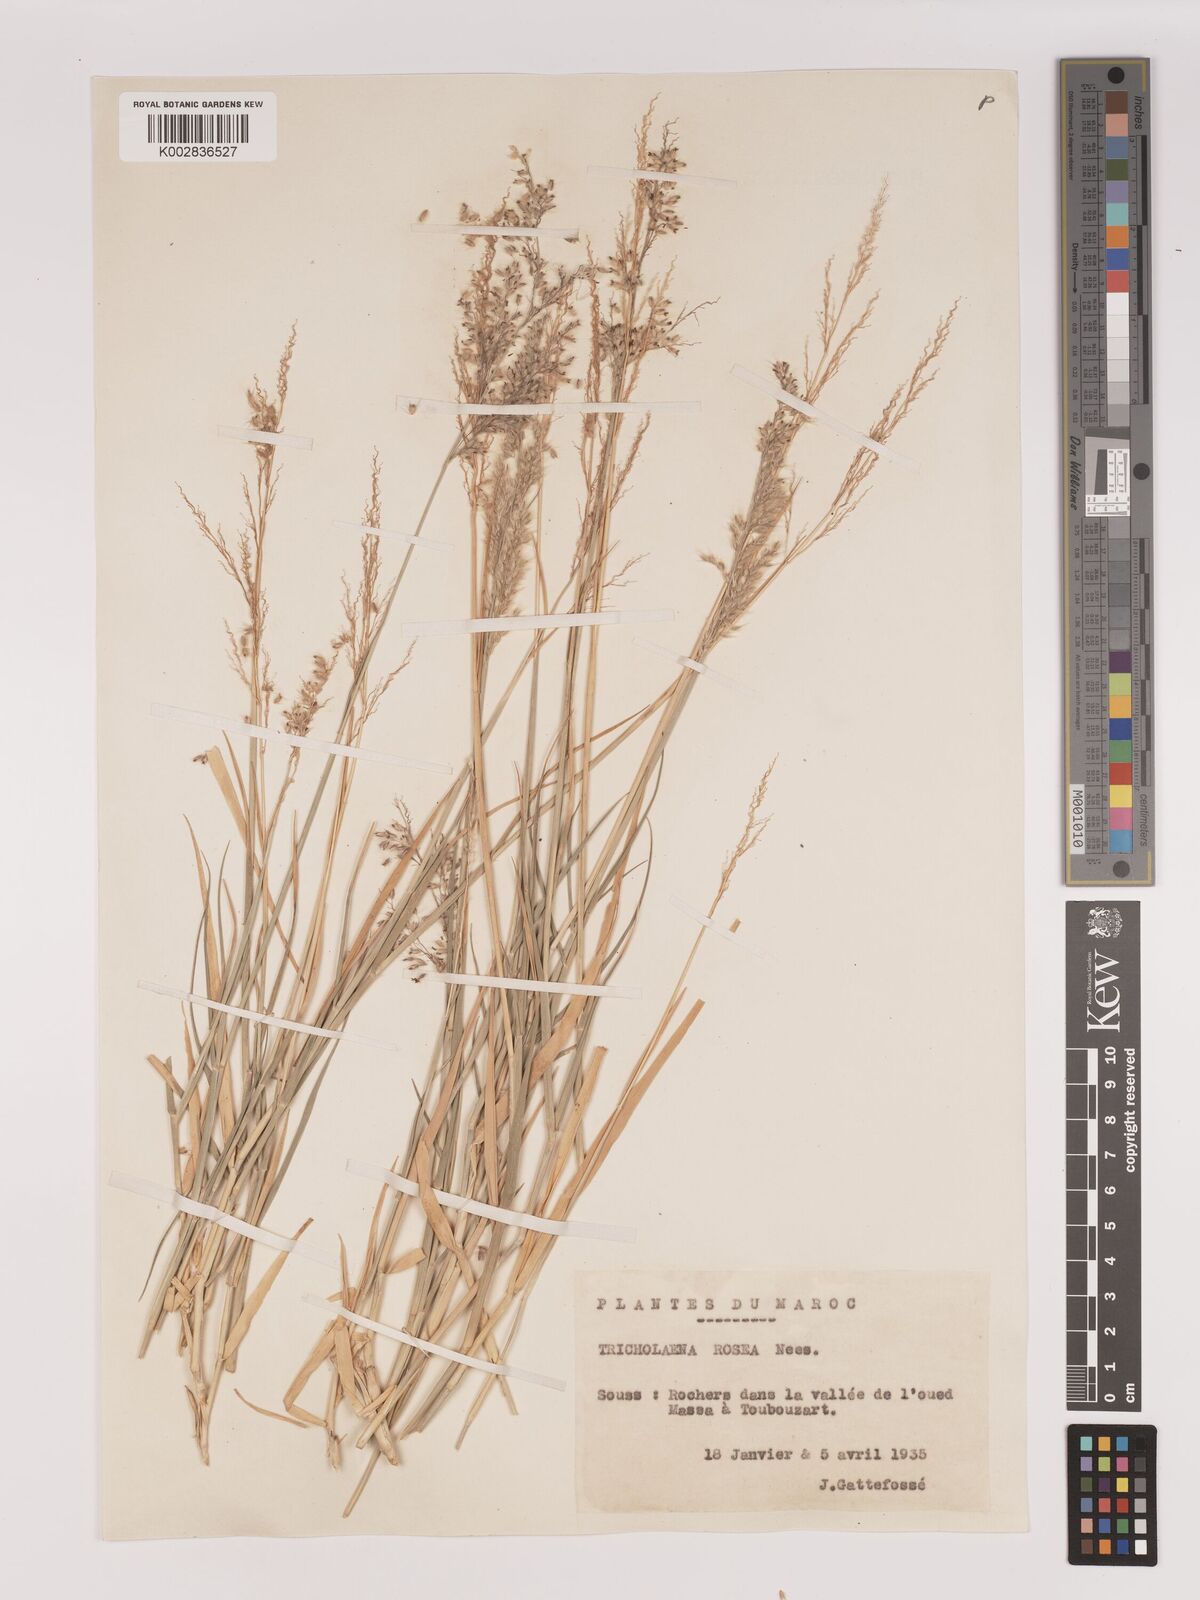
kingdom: Plantae
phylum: Tracheophyta
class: Liliopsida
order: Poales
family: Poaceae
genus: Tricholaena
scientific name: Tricholaena teneriffae
